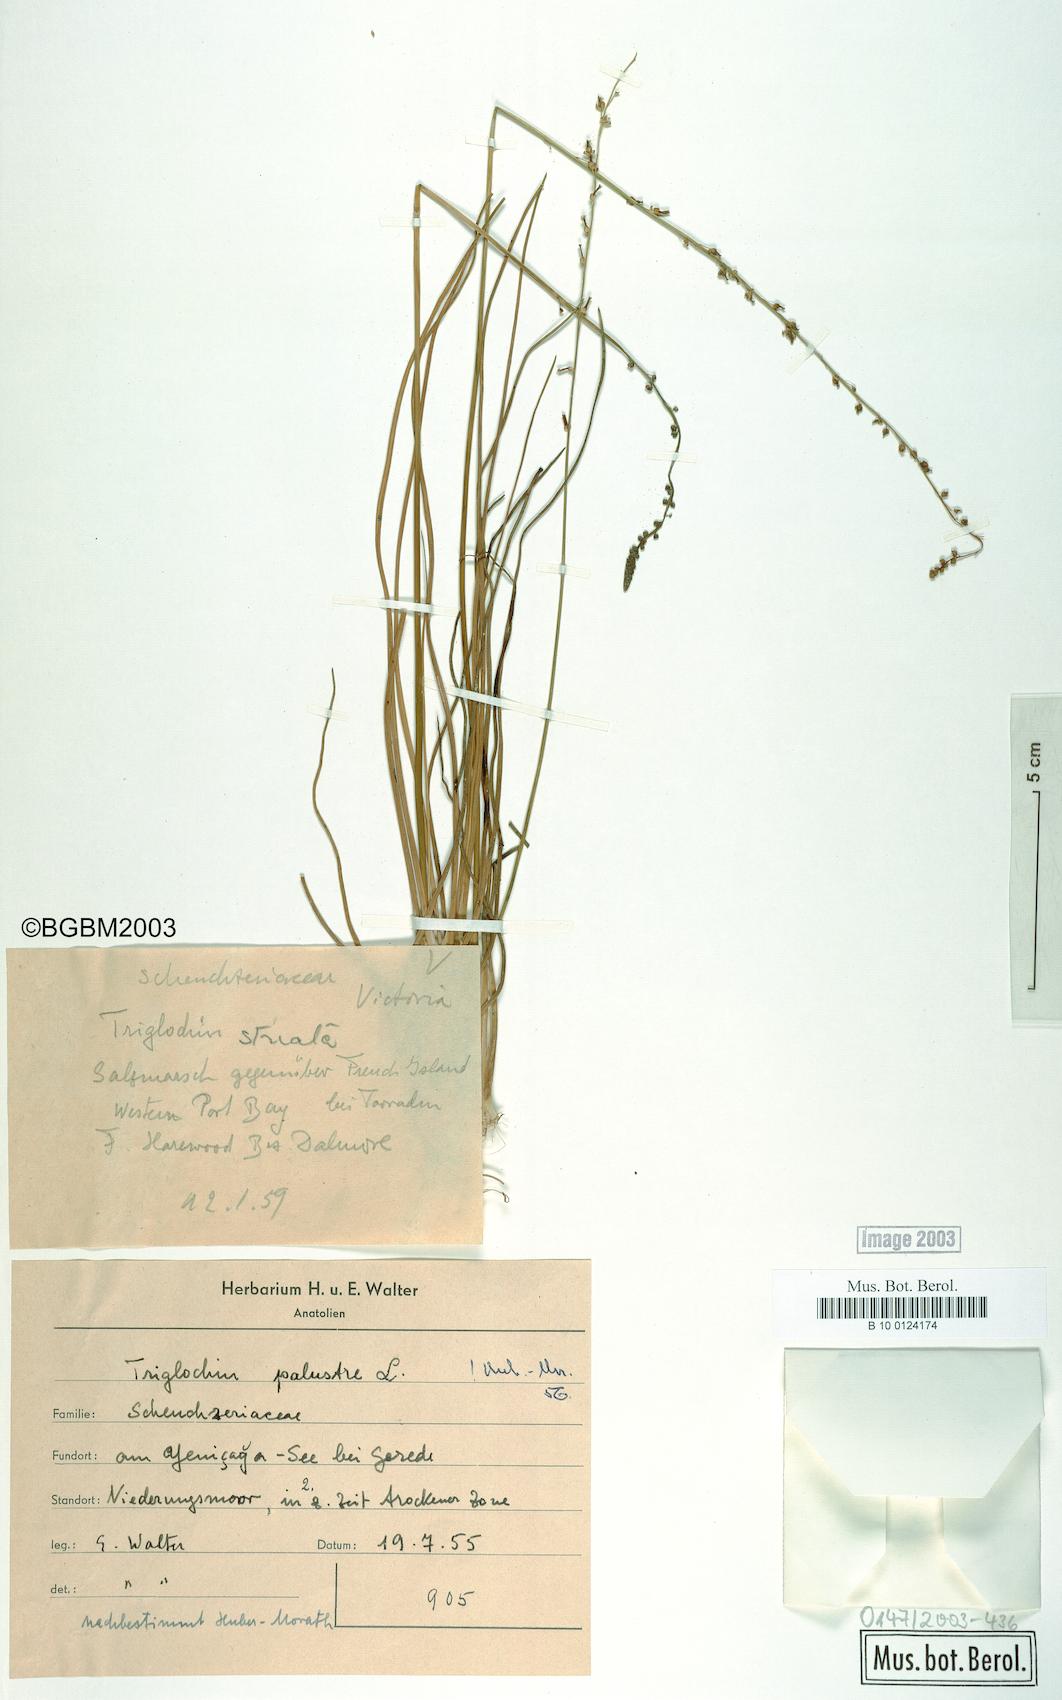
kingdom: Plantae
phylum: Tracheophyta
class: Liliopsida
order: Alismatales
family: Juncaginaceae
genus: Triglochin
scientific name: Triglochin palustris
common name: Marsh arrowgrass
